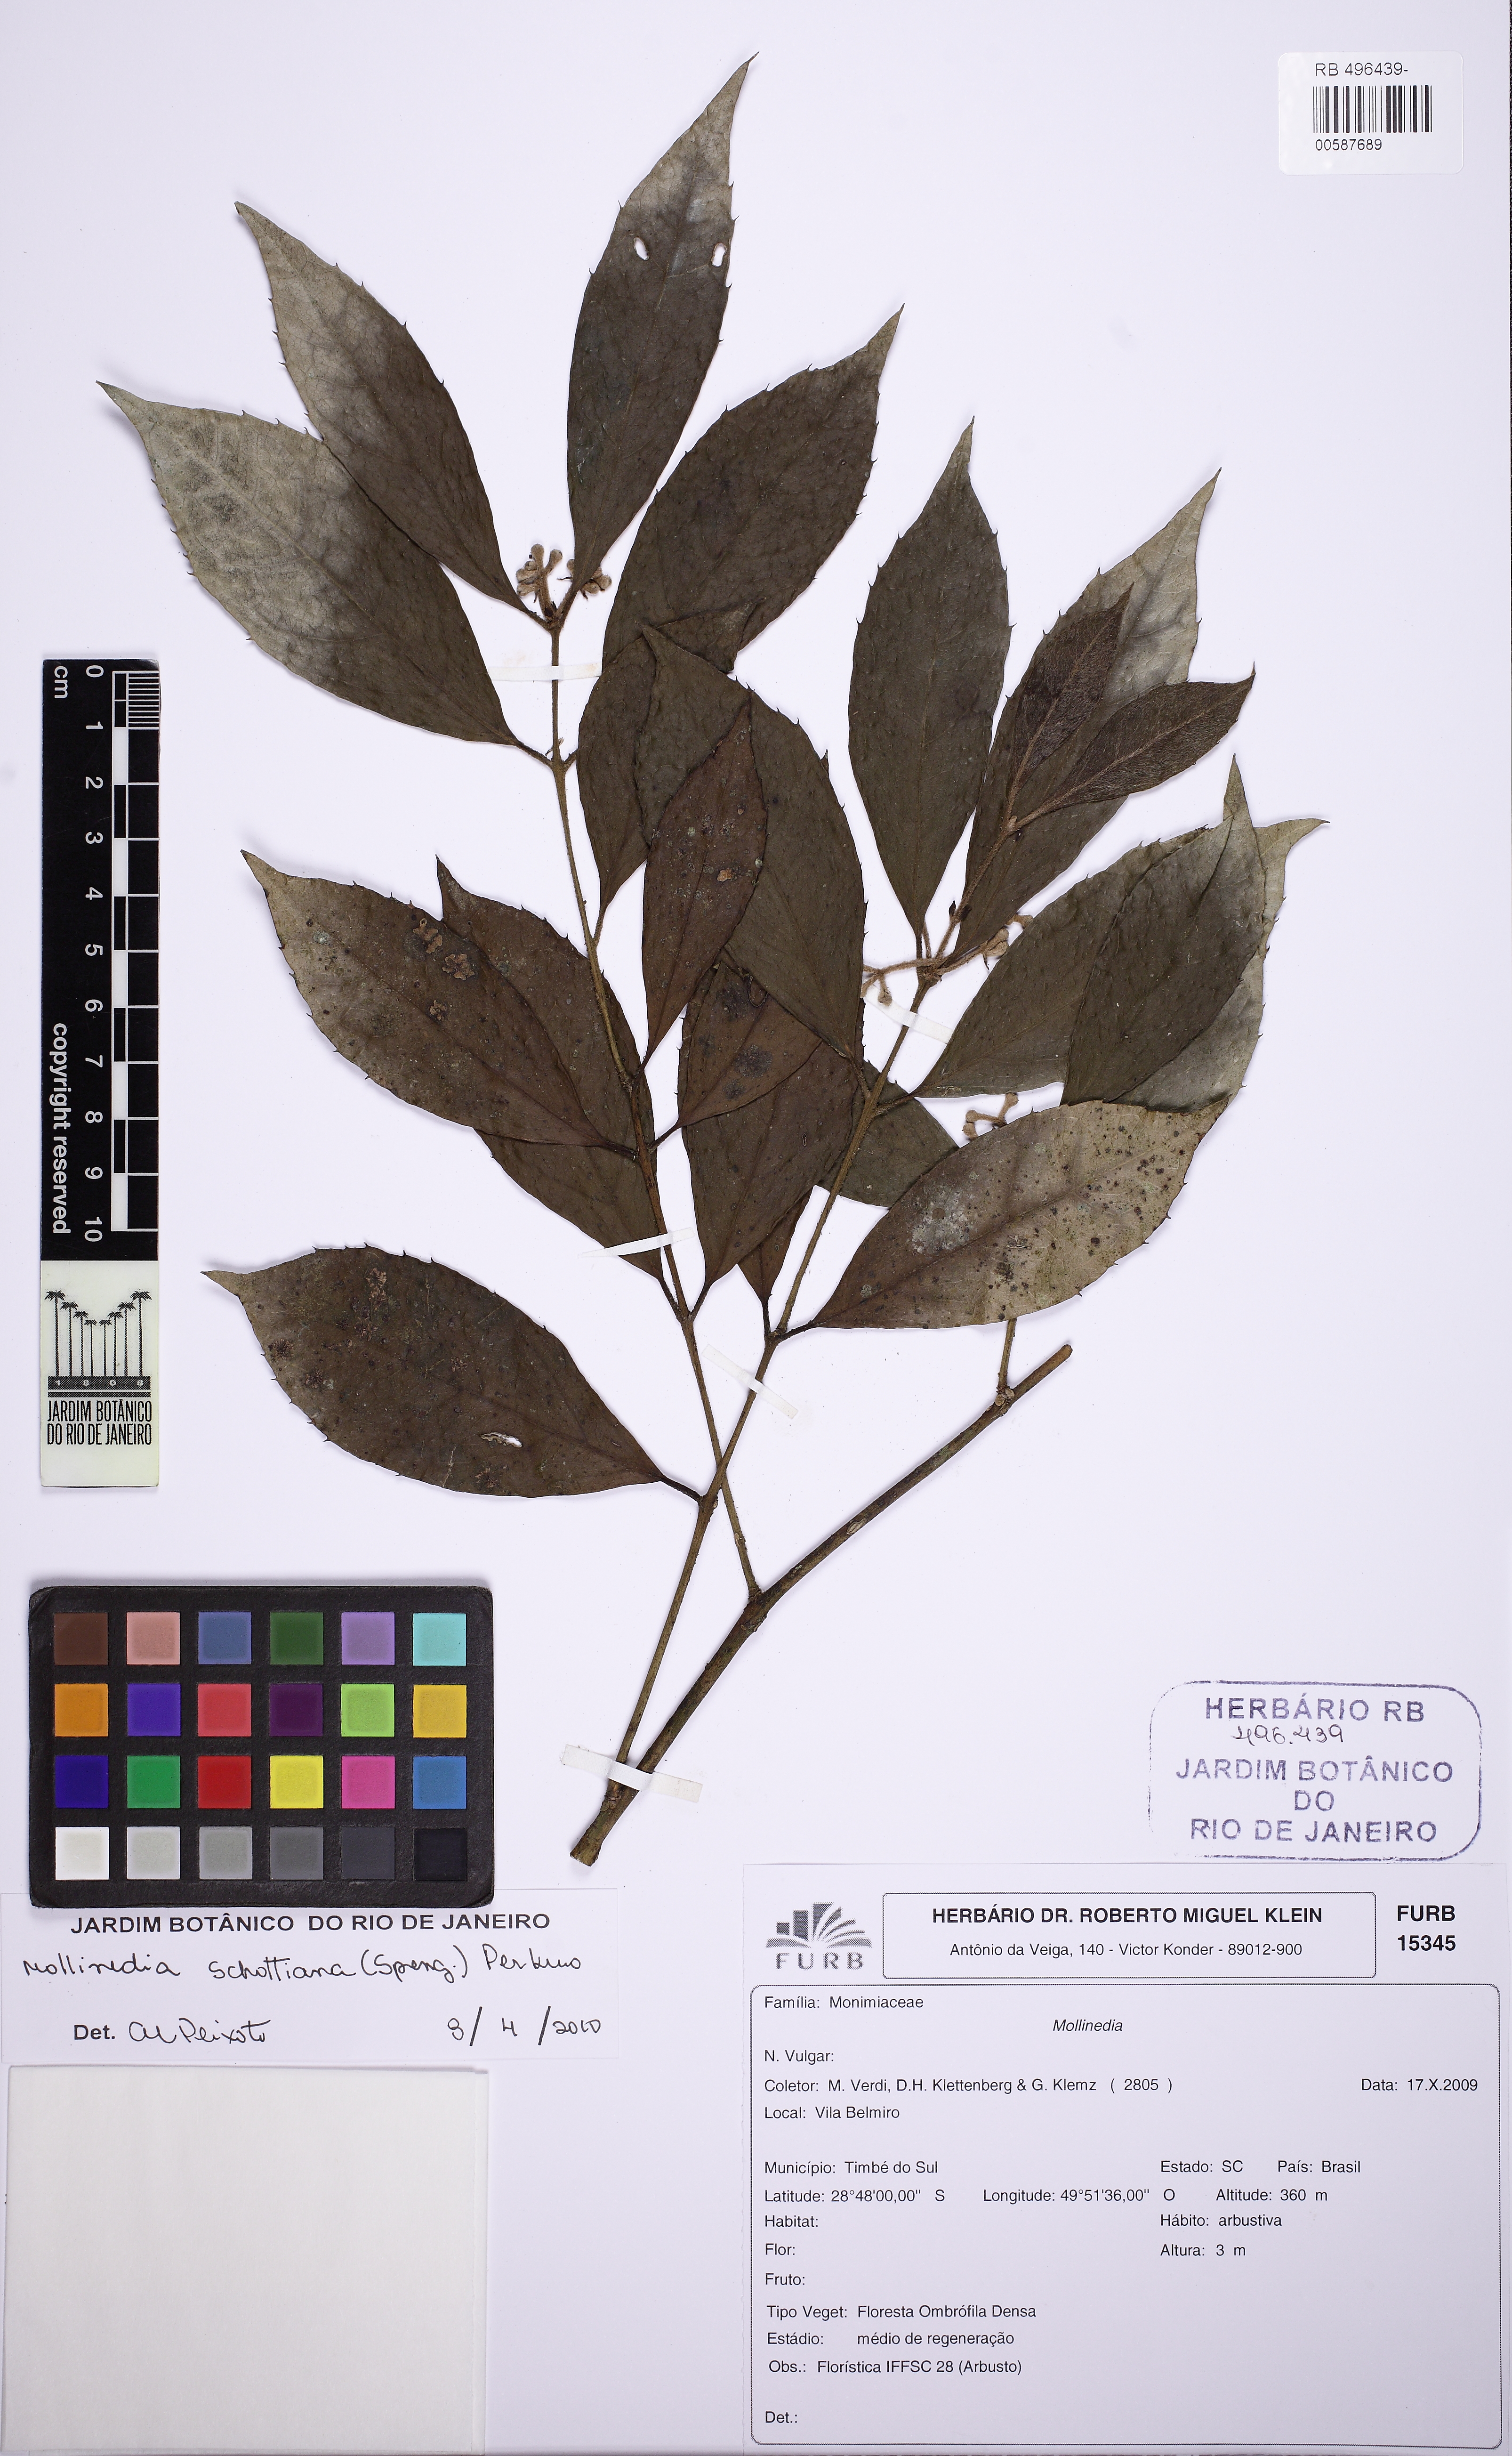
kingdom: Plantae
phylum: Tracheophyta
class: Magnoliopsida
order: Laurales
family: Monimiaceae
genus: Mollinedia
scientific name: Mollinedia umbellata
